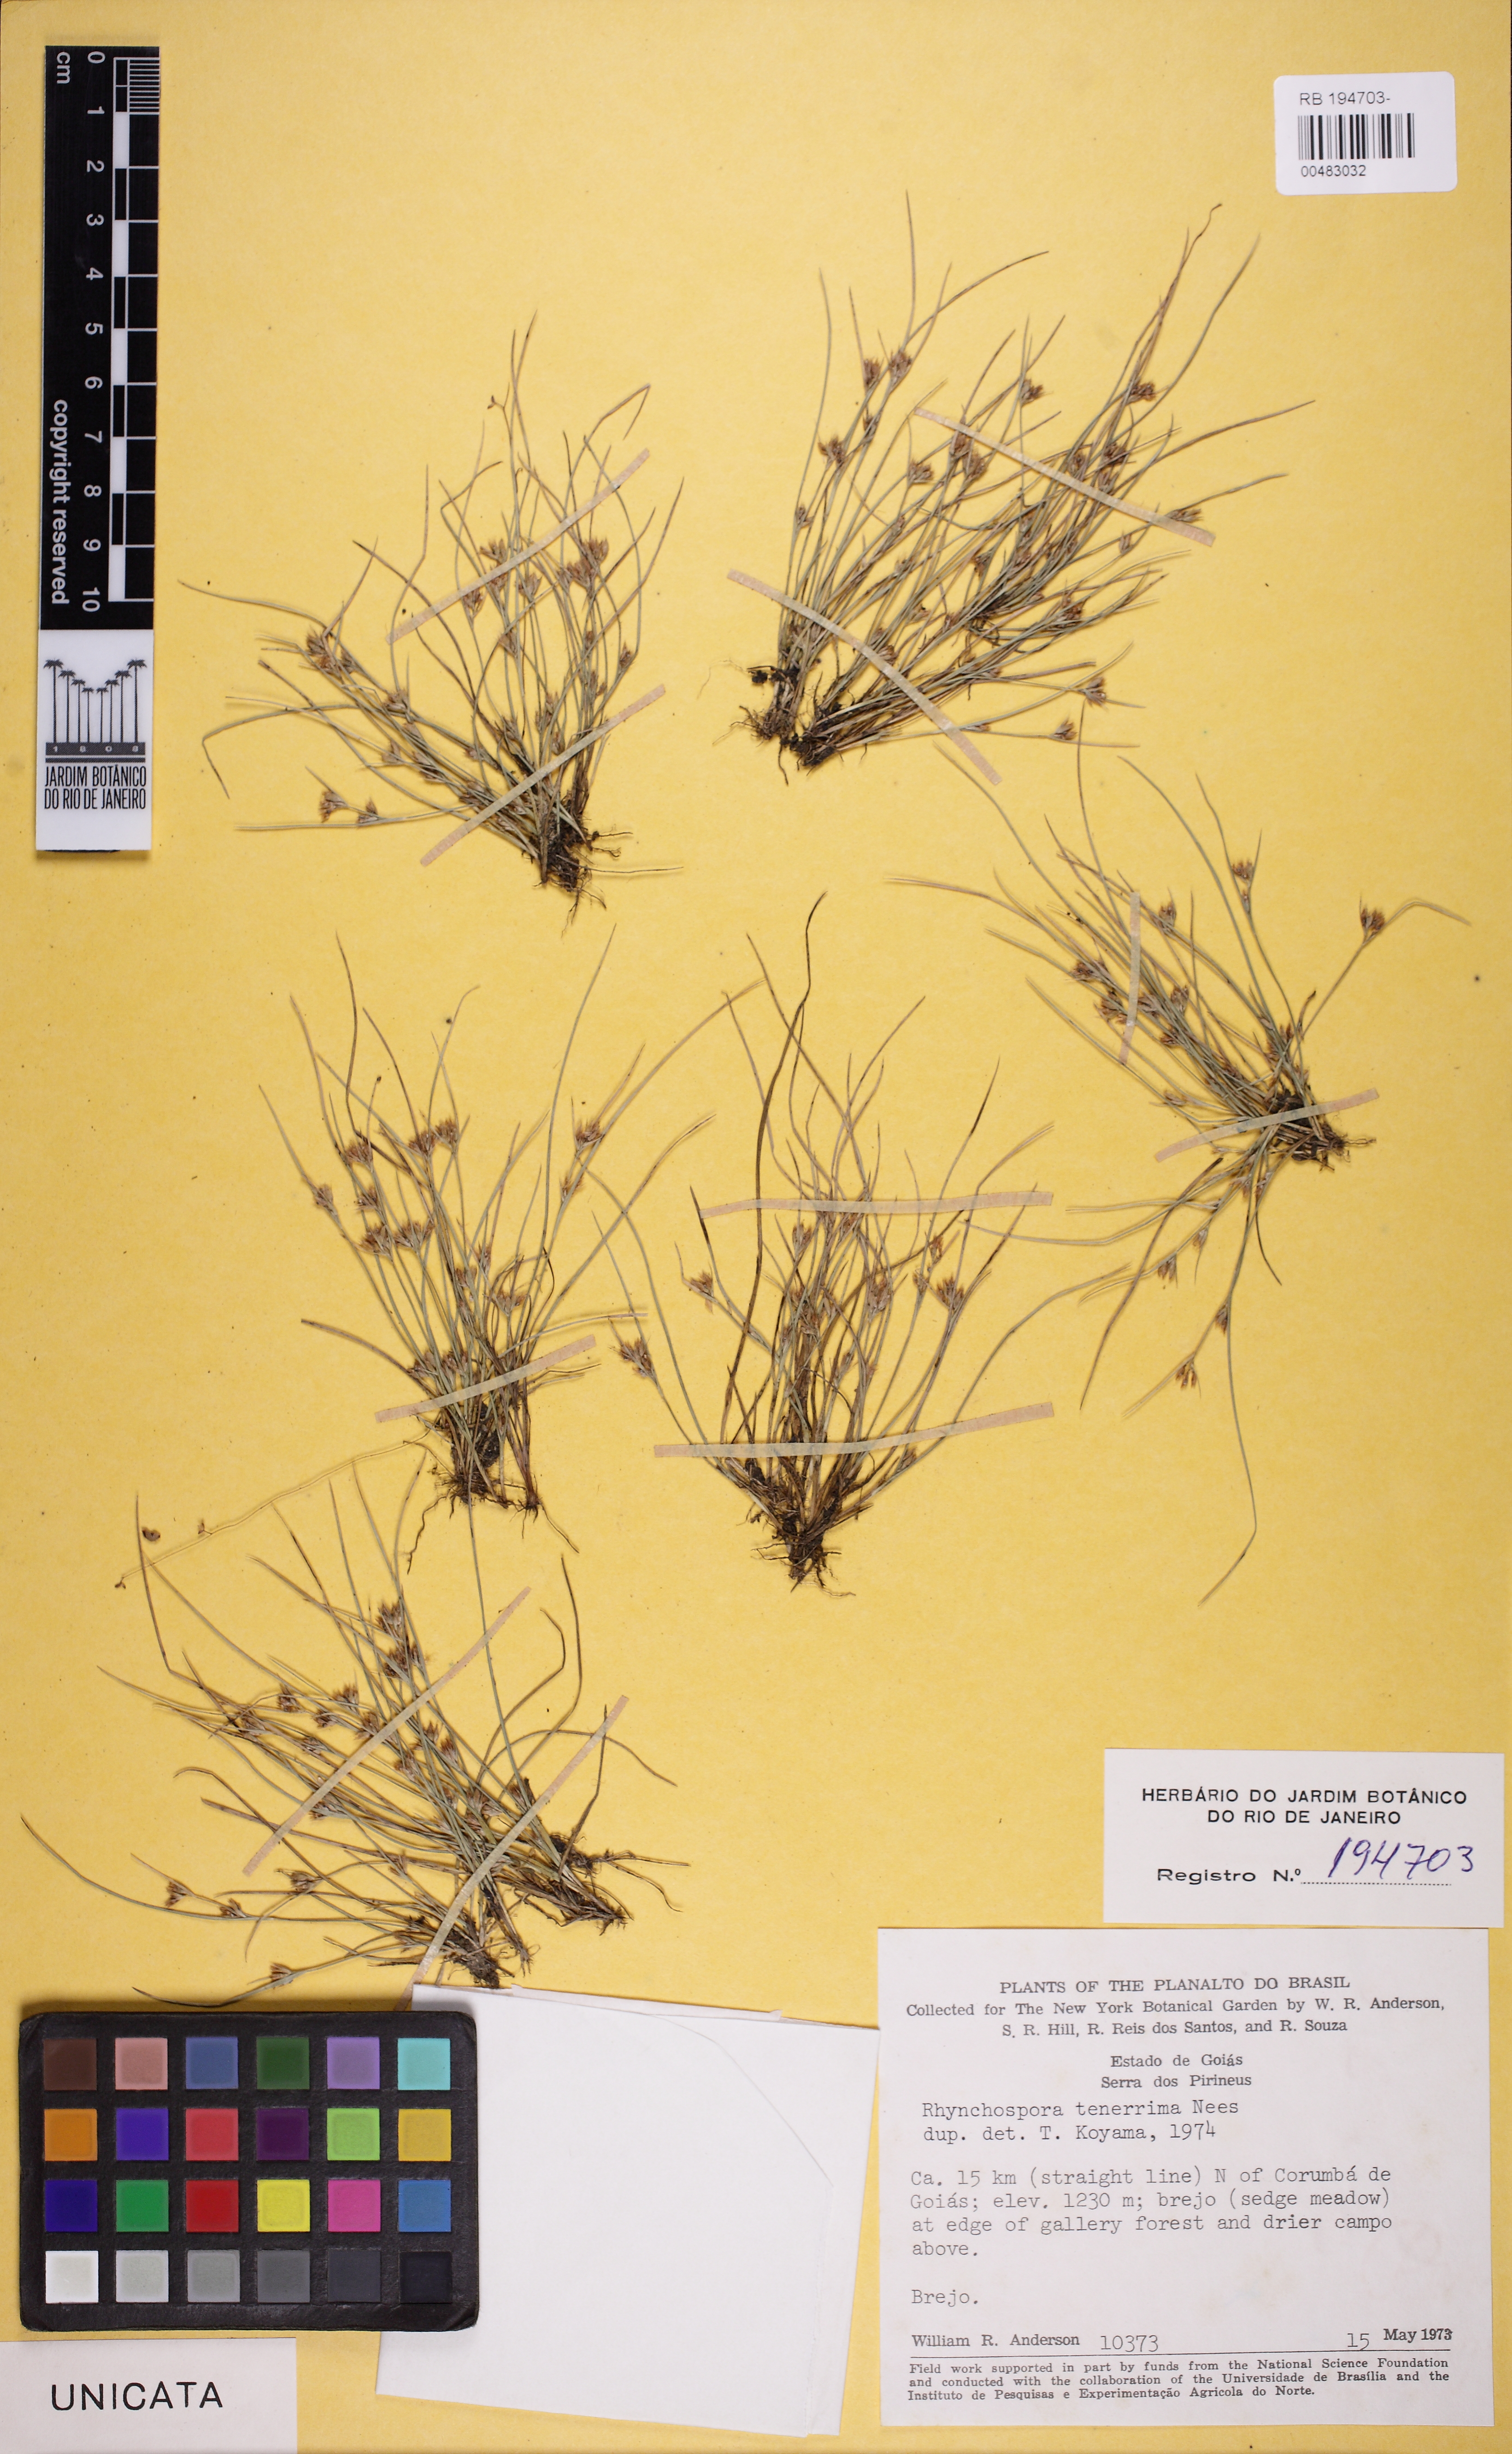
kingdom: Plantae
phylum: Tracheophyta
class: Liliopsida
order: Poales
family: Cyperaceae
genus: Rhynchospora
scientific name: Rhynchospora brevirostris
